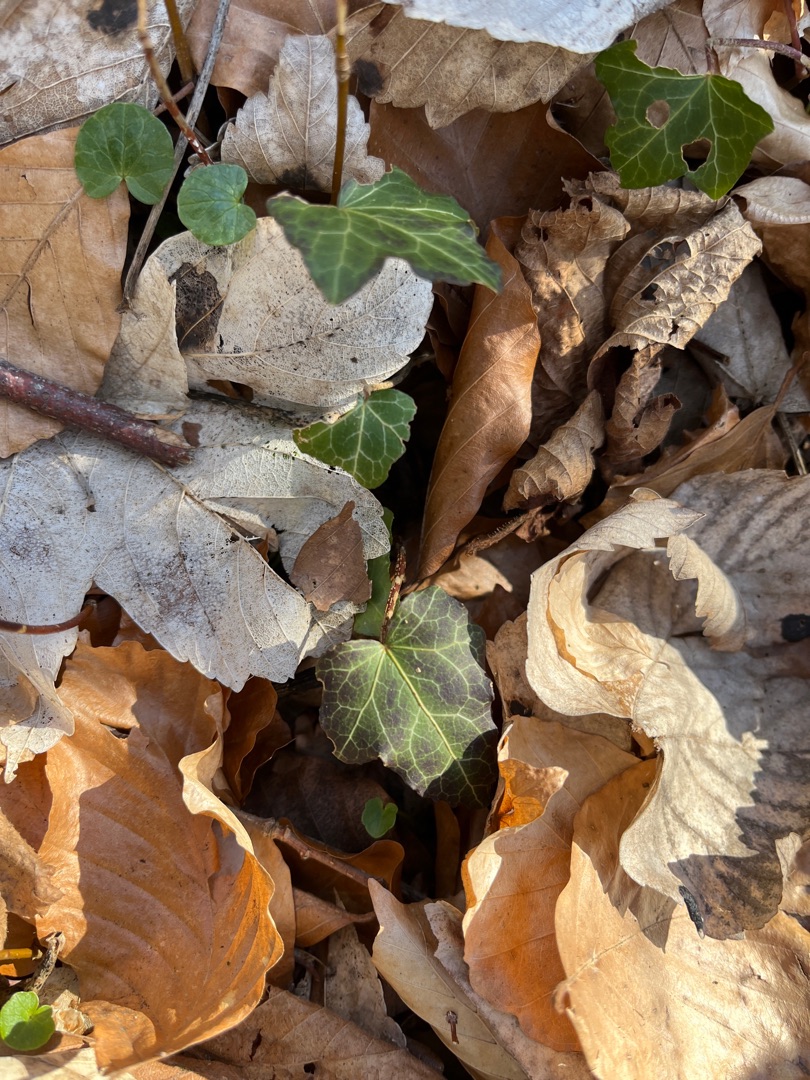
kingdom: Plantae
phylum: Tracheophyta
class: Magnoliopsida
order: Apiales
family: Araliaceae
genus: Hedera
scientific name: Hedera helix
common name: Vedbend
